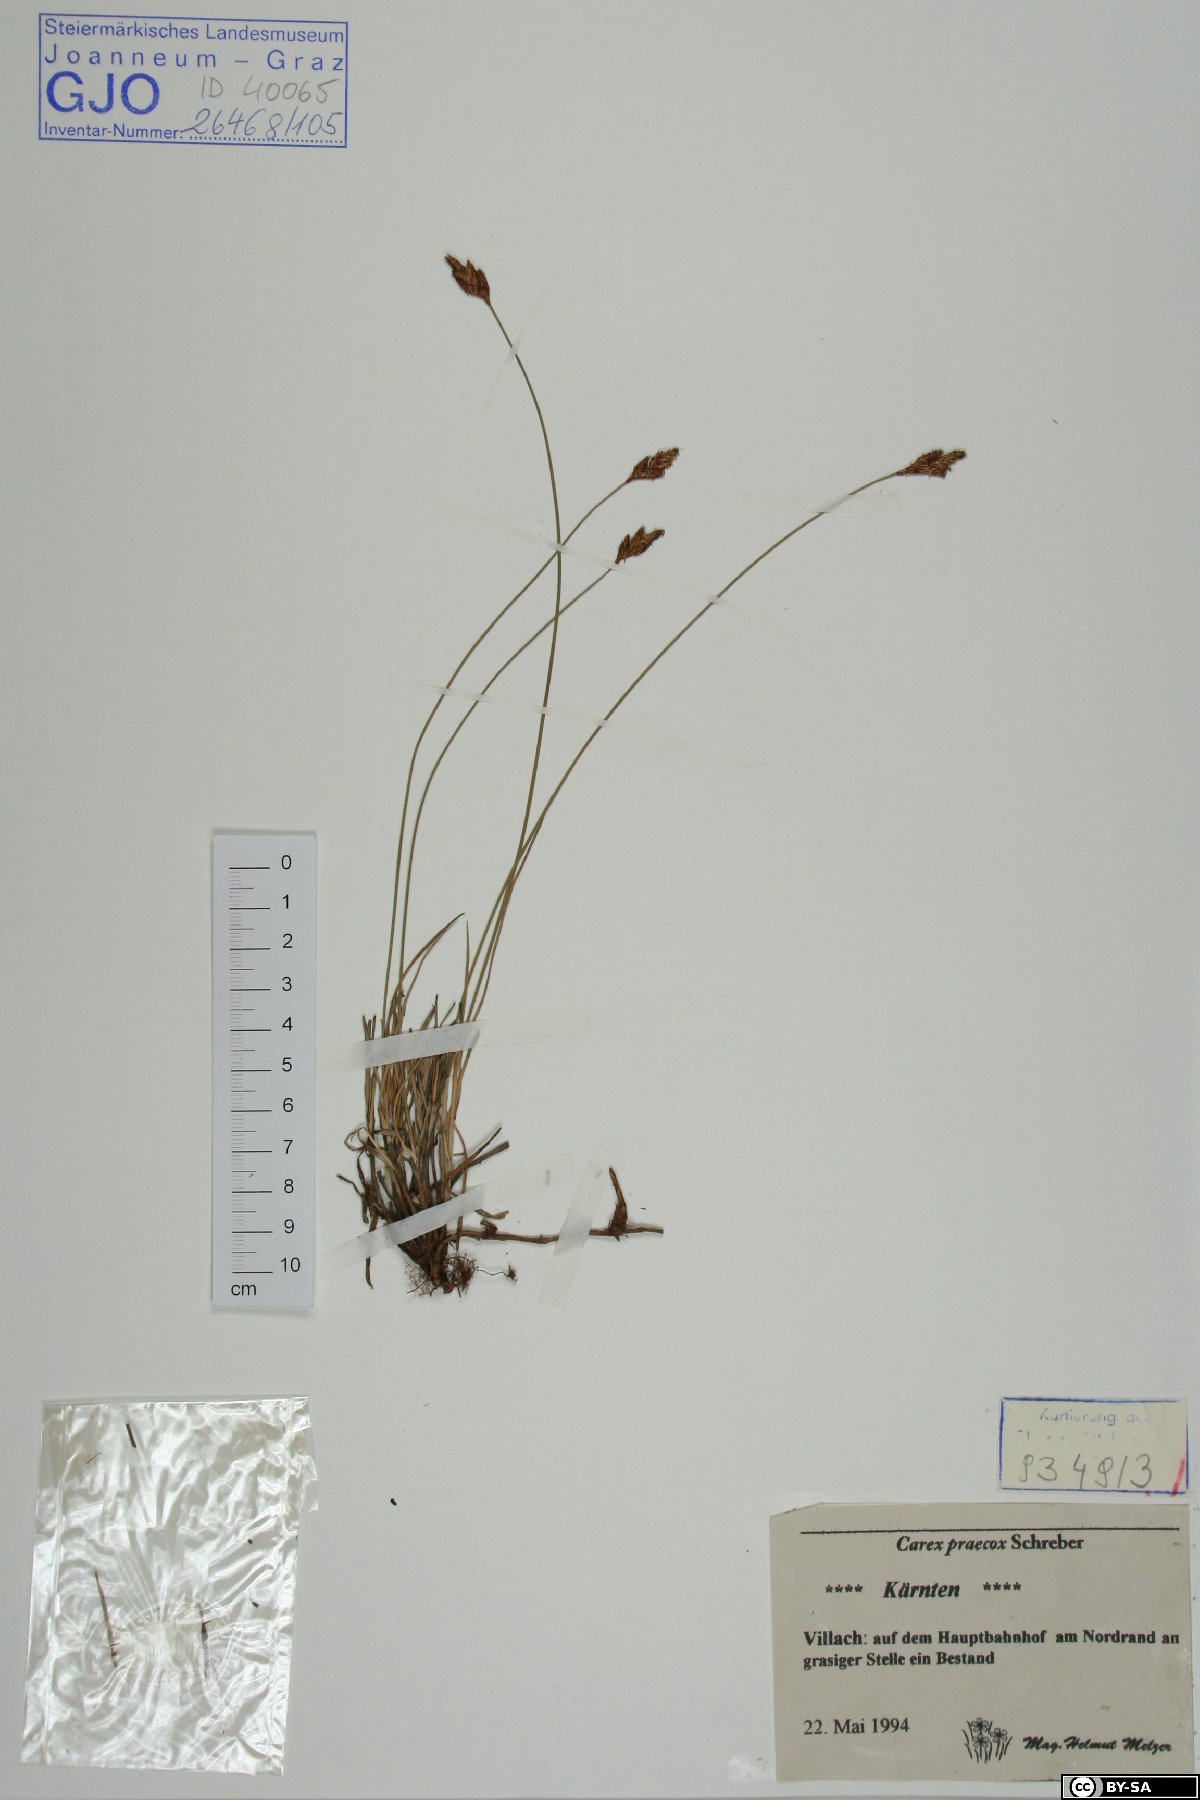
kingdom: Plantae
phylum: Tracheophyta
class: Liliopsida
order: Poales
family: Cyperaceae
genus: Carex
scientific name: Carex praecox
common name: Early sedge
